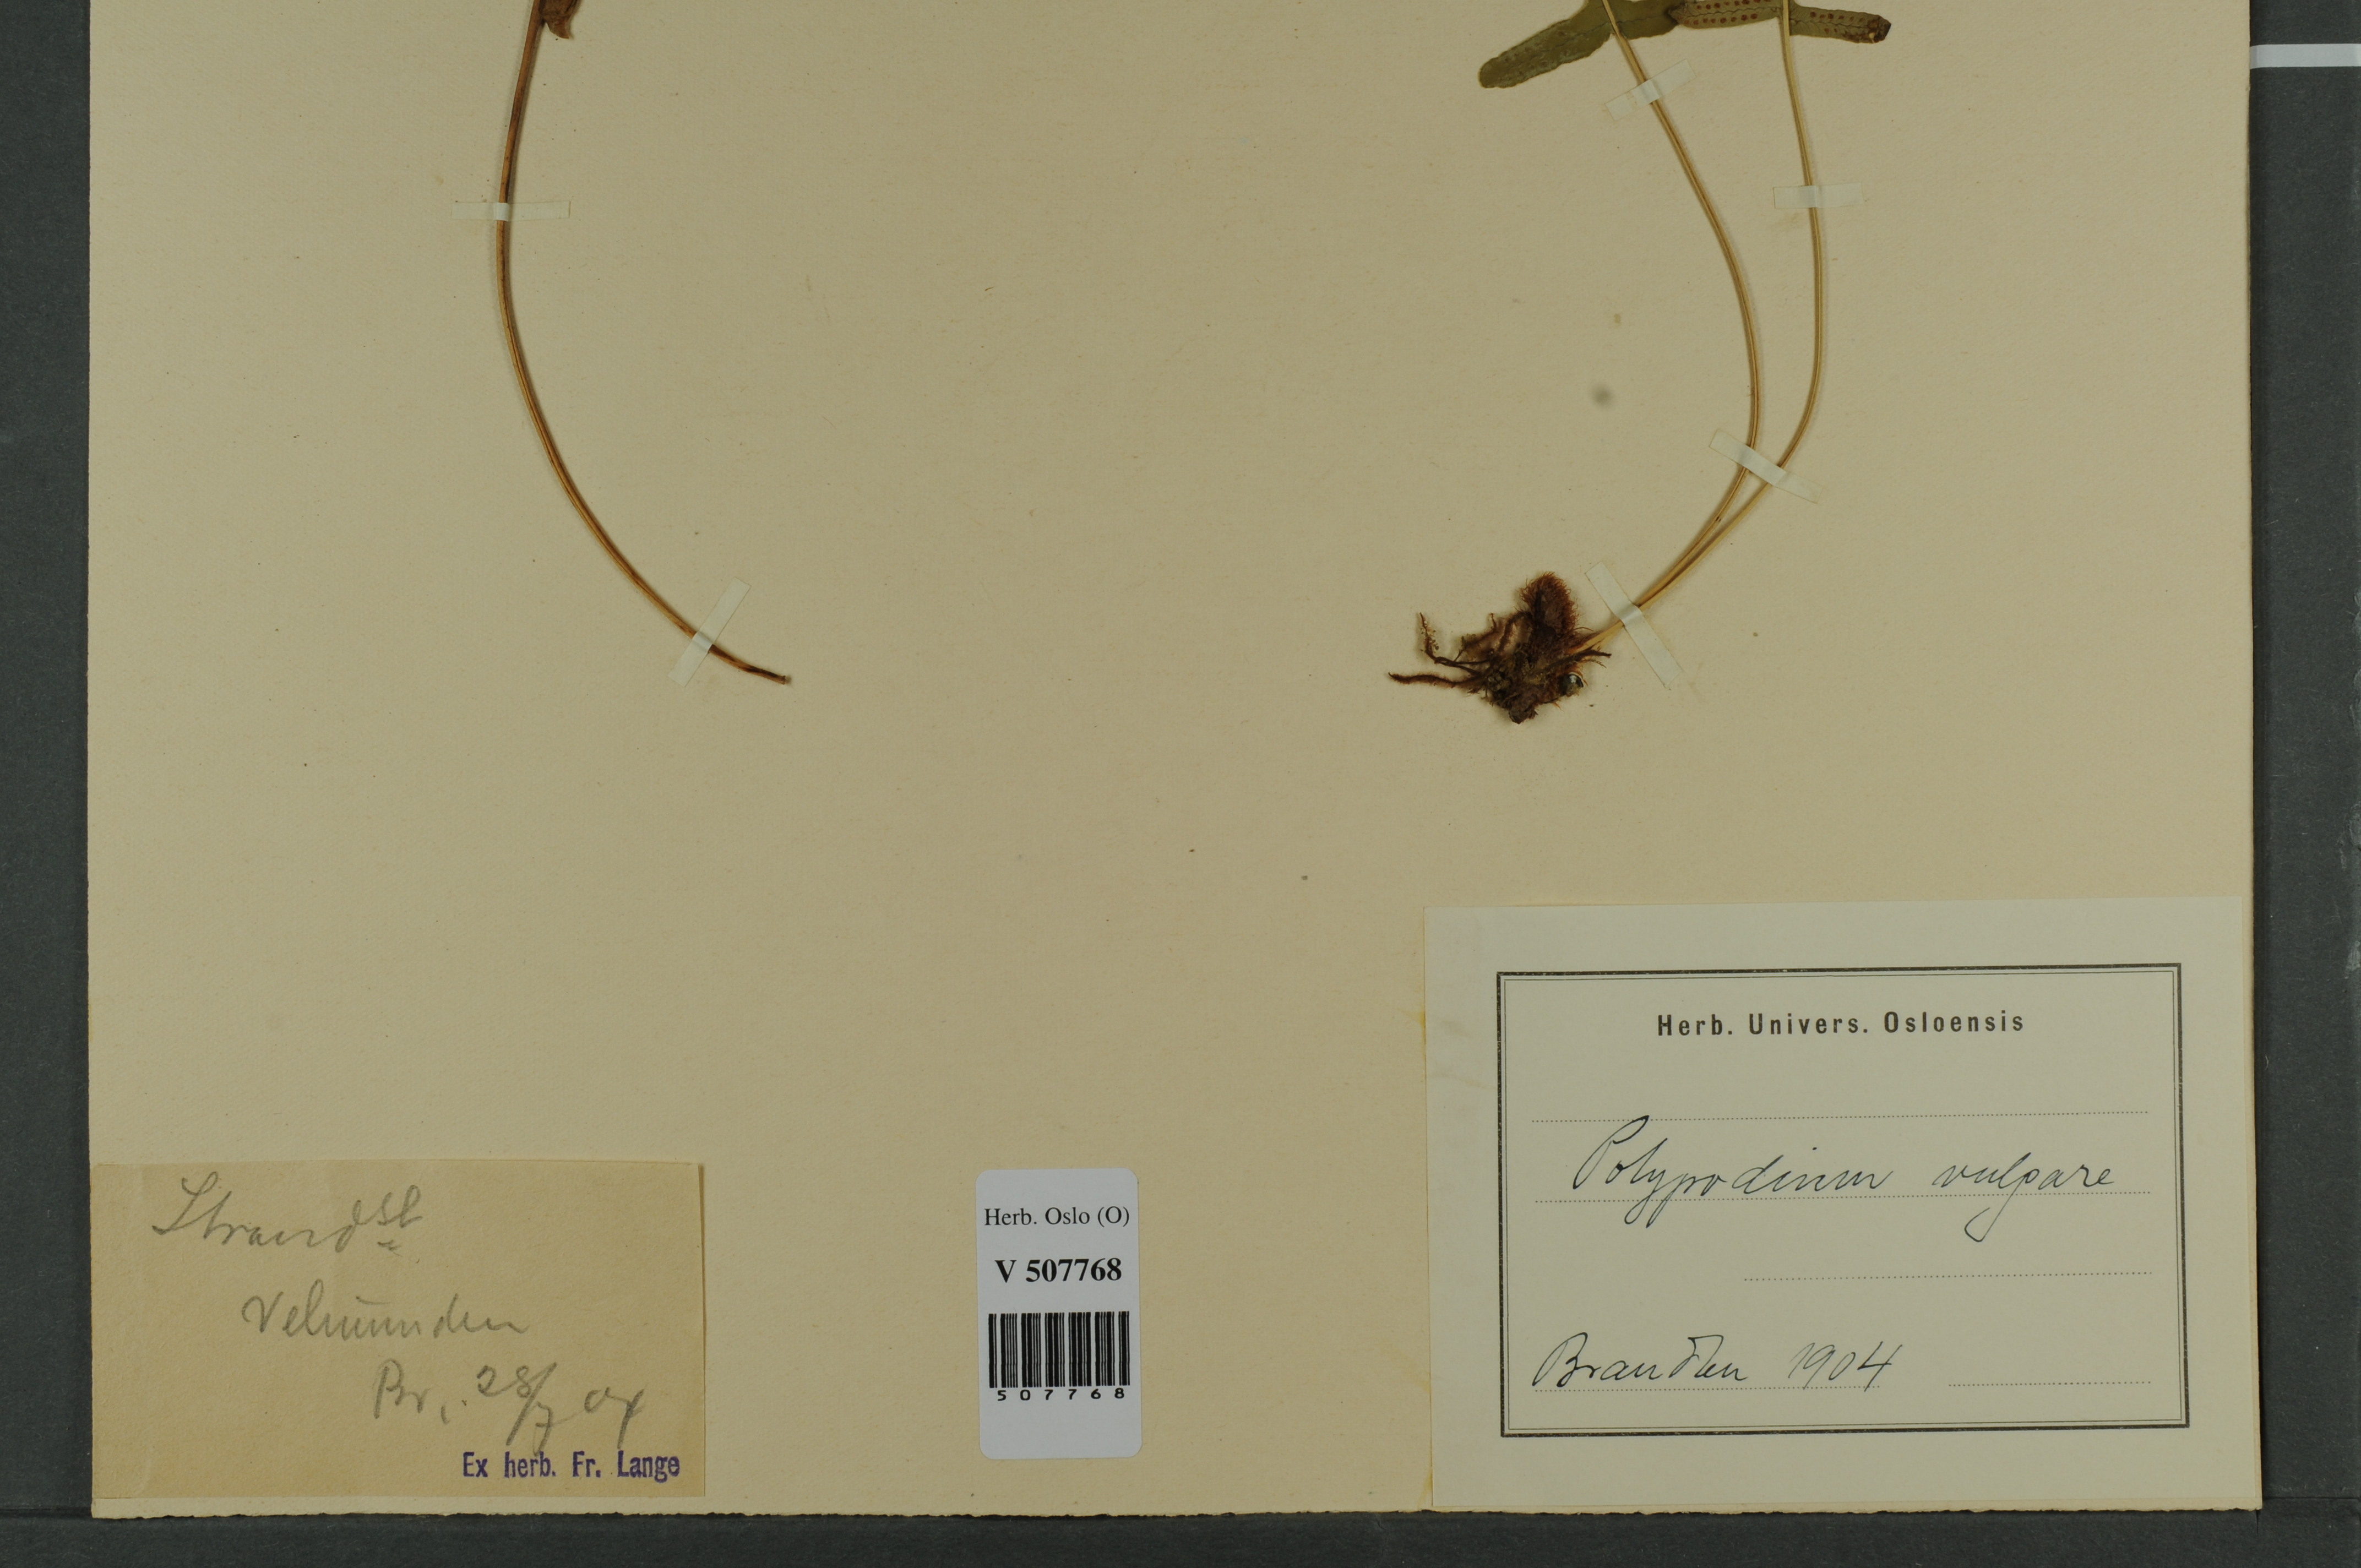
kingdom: Plantae
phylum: Tracheophyta
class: Polypodiopsida
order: Polypodiales
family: Polypodiaceae
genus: Polypodium
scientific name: Polypodium vulgare
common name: Common polypody
